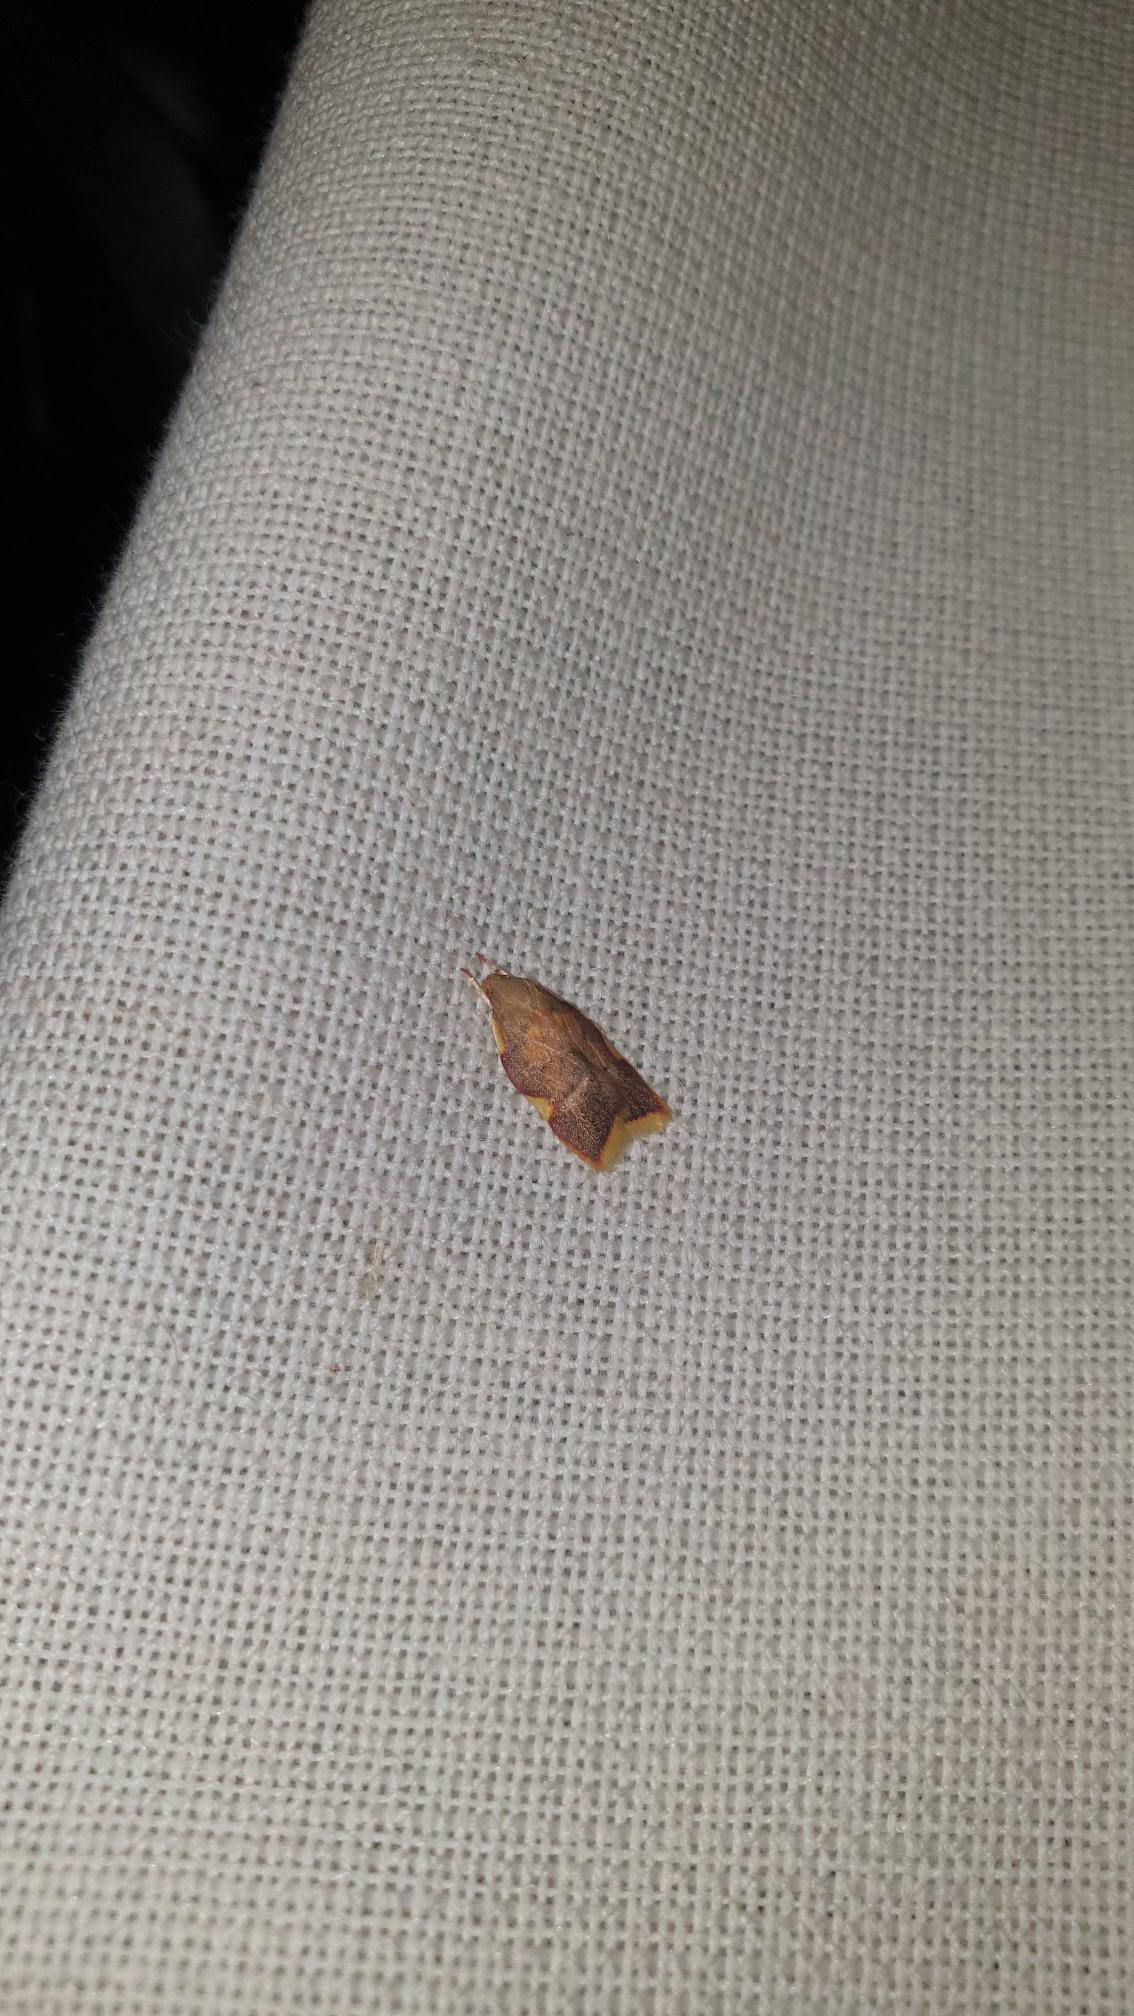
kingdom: Animalia
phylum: Arthropoda
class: Insecta
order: Lepidoptera
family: Peleopodidae
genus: Carcina
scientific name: Carcina quercana
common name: Egeprydvinge
